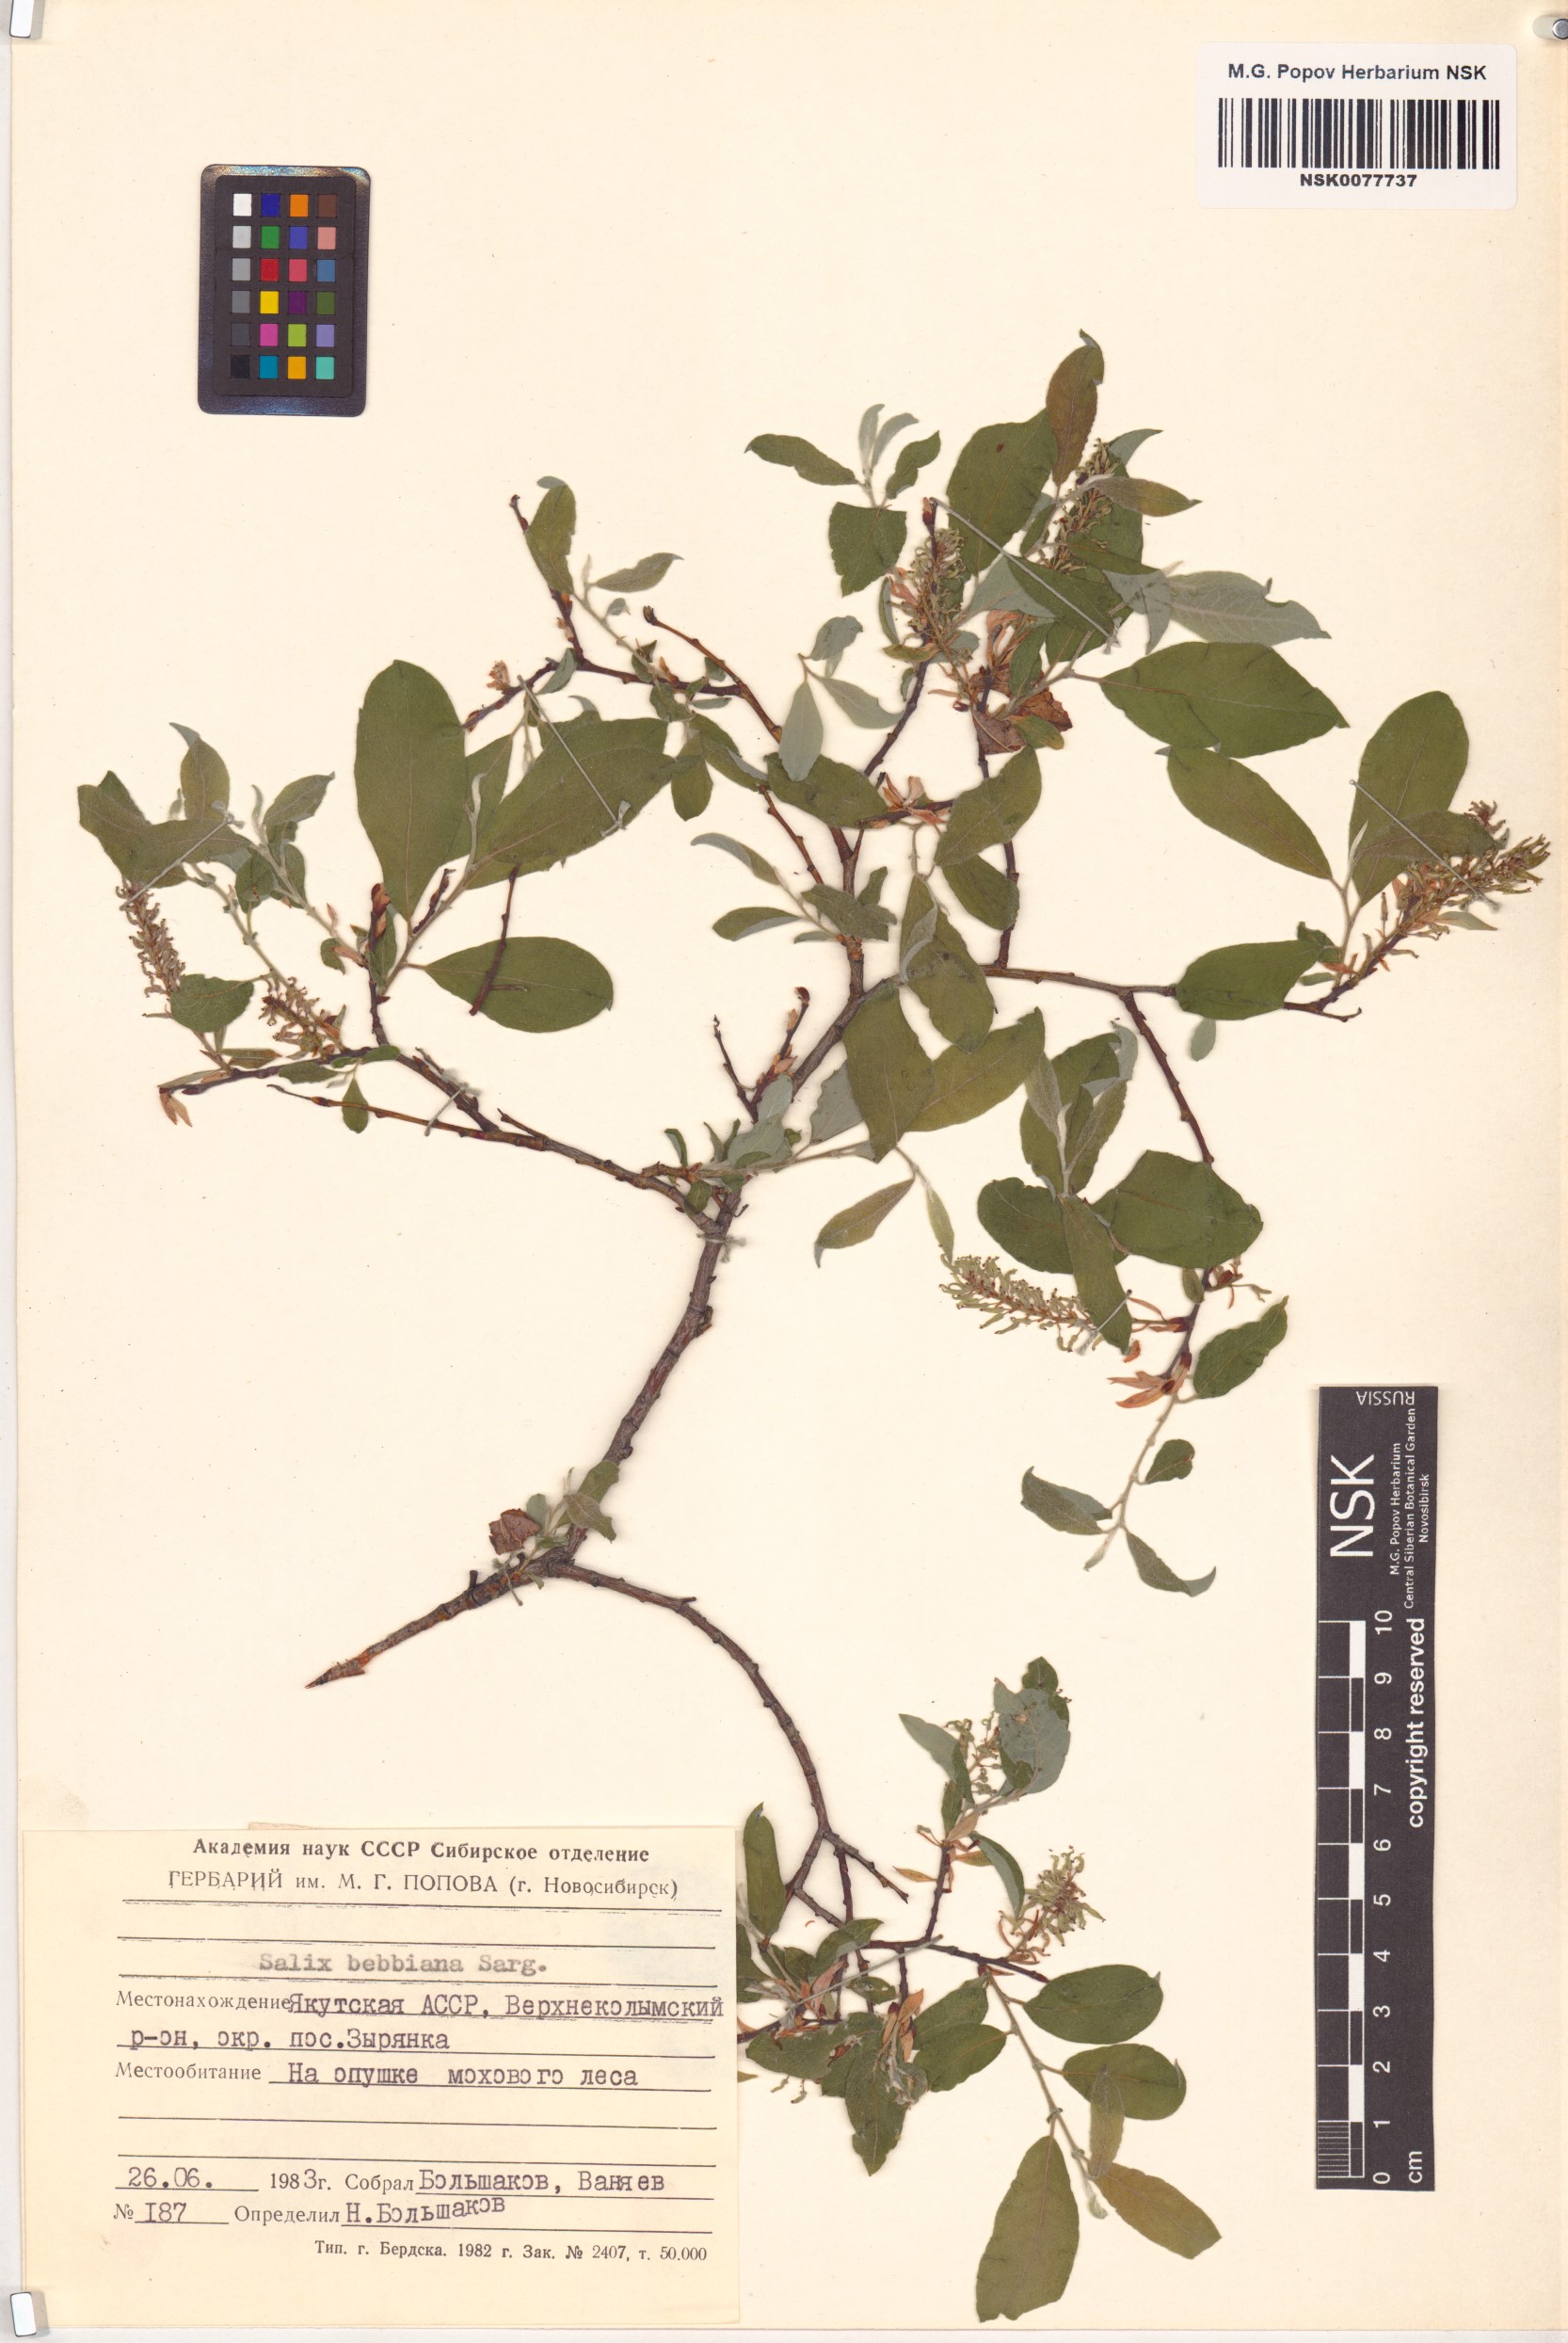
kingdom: Plantae
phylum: Tracheophyta
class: Magnoliopsida
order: Malpighiales
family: Salicaceae
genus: Salix
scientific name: Salix bebbiana
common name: Bebb's willow
